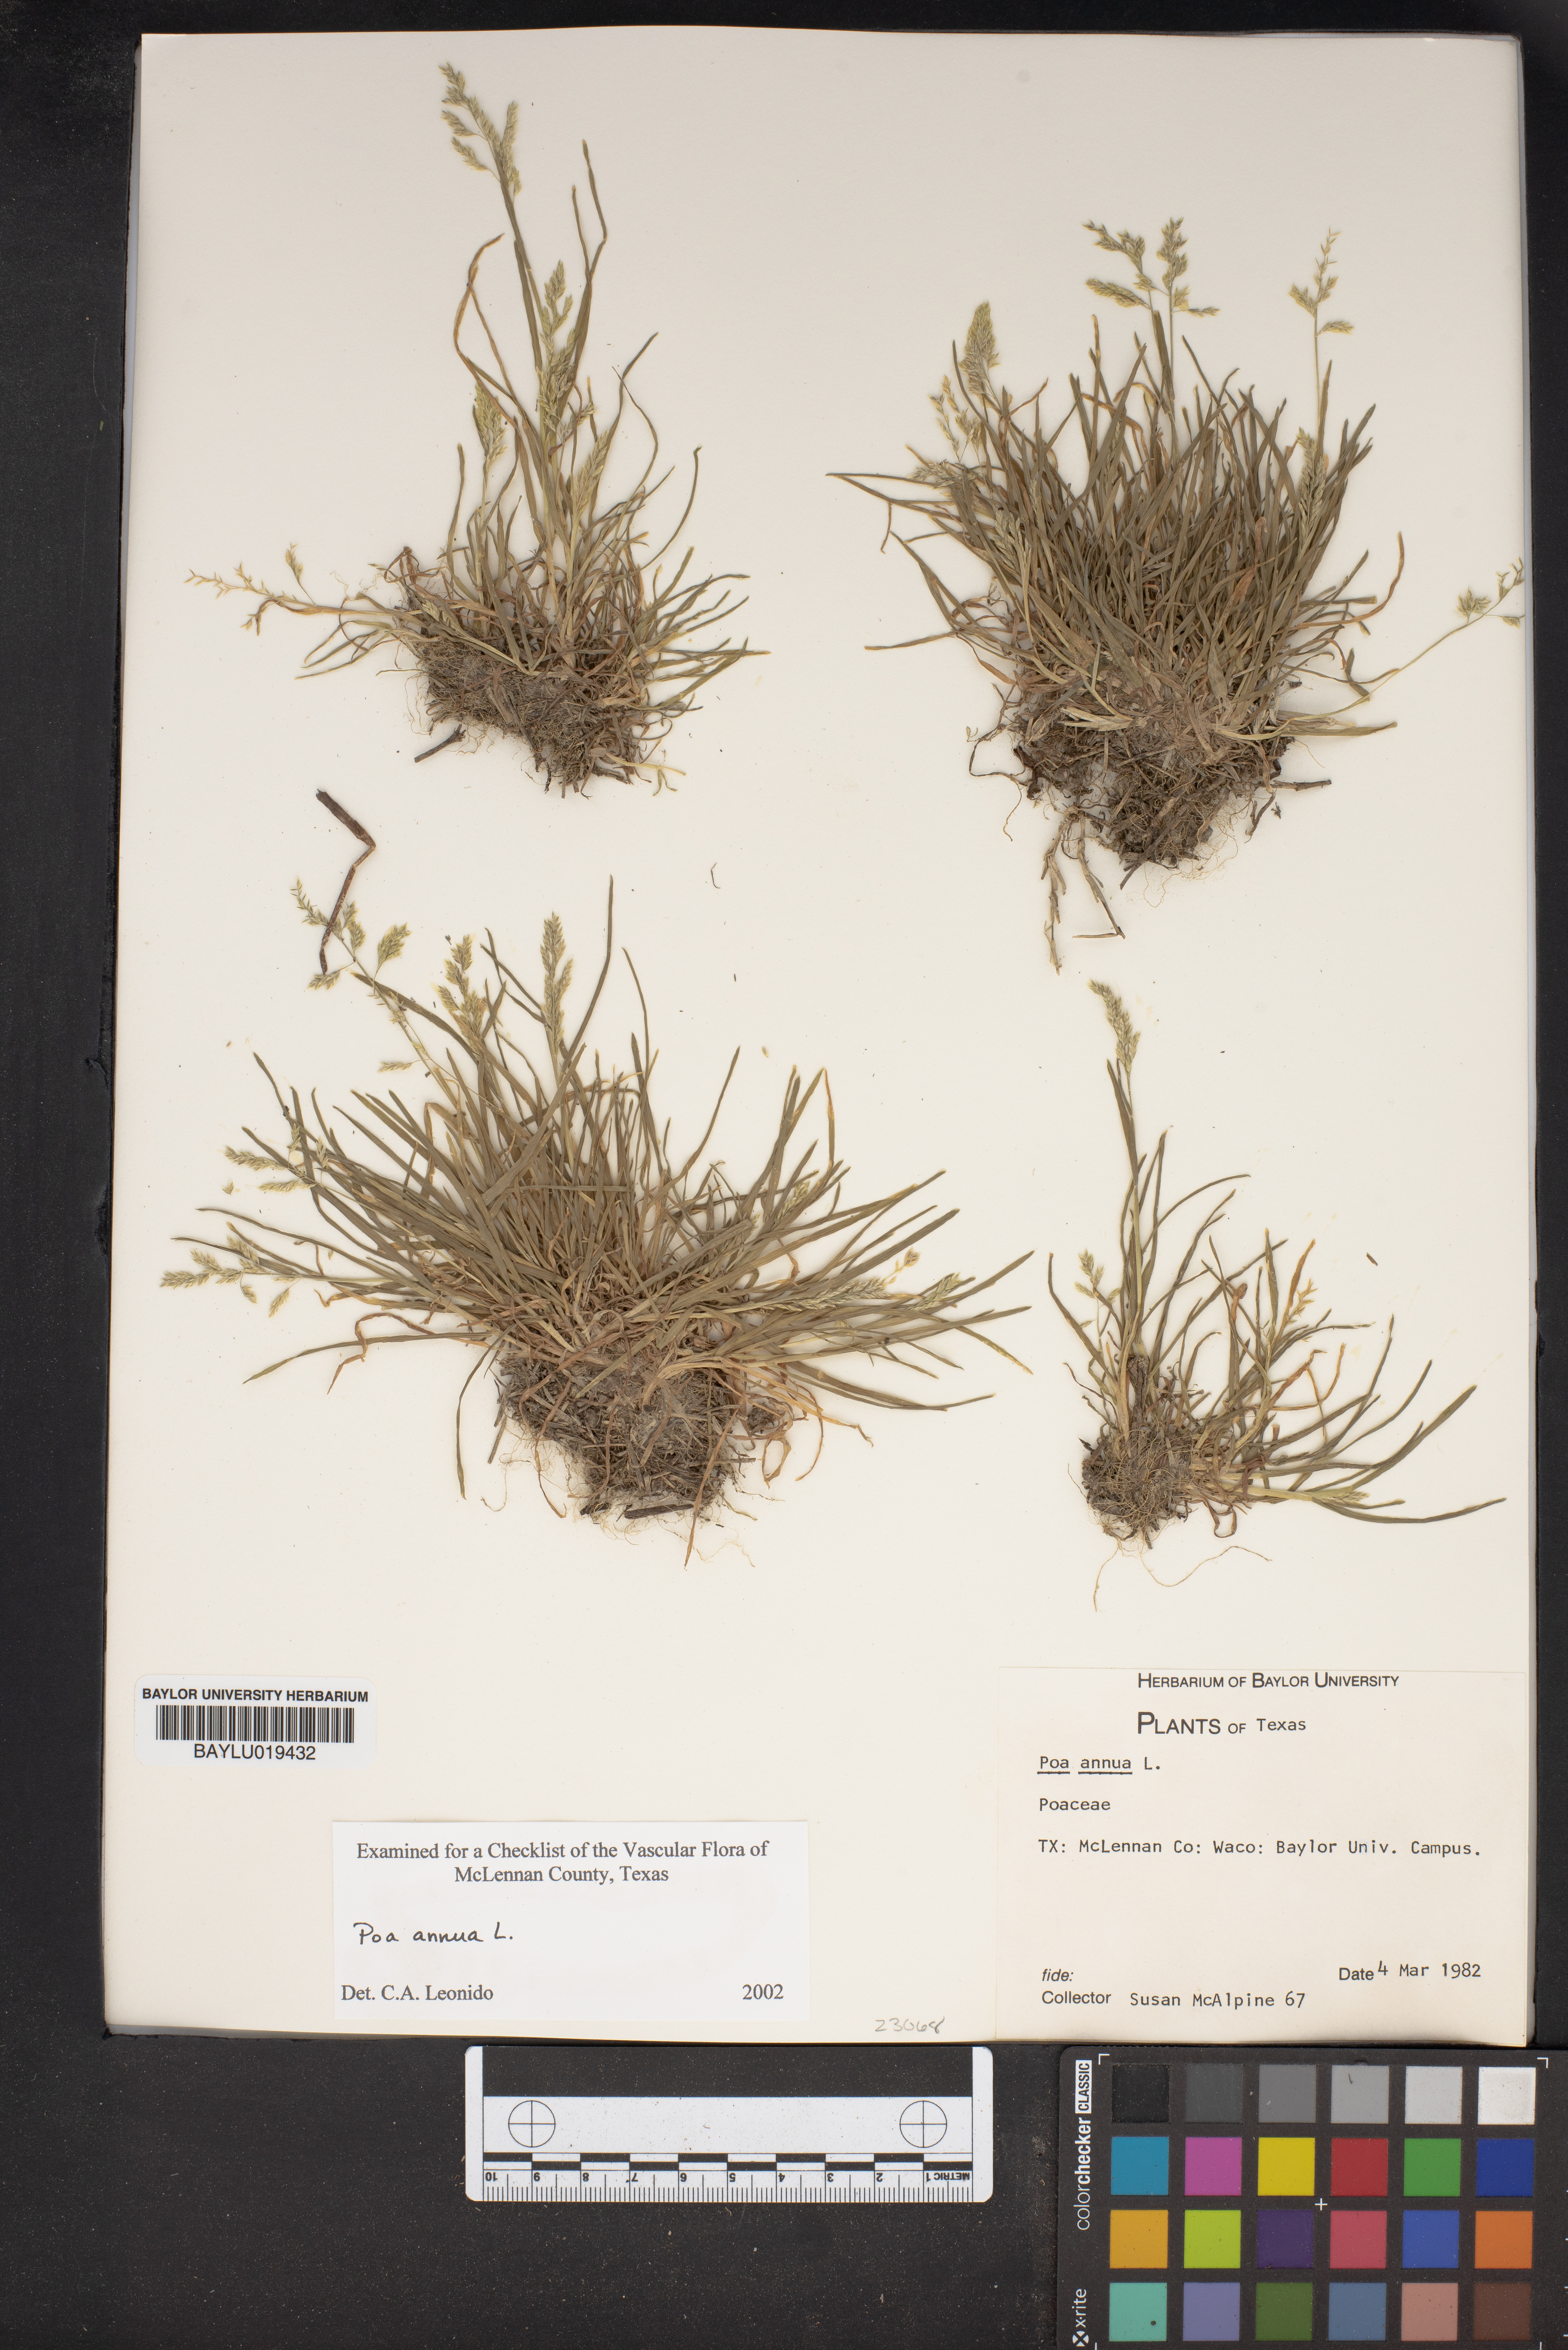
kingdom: Plantae
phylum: Tracheophyta
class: Liliopsida
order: Poales
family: Poaceae
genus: Poa
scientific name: Poa annua
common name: Annual bluegrass
